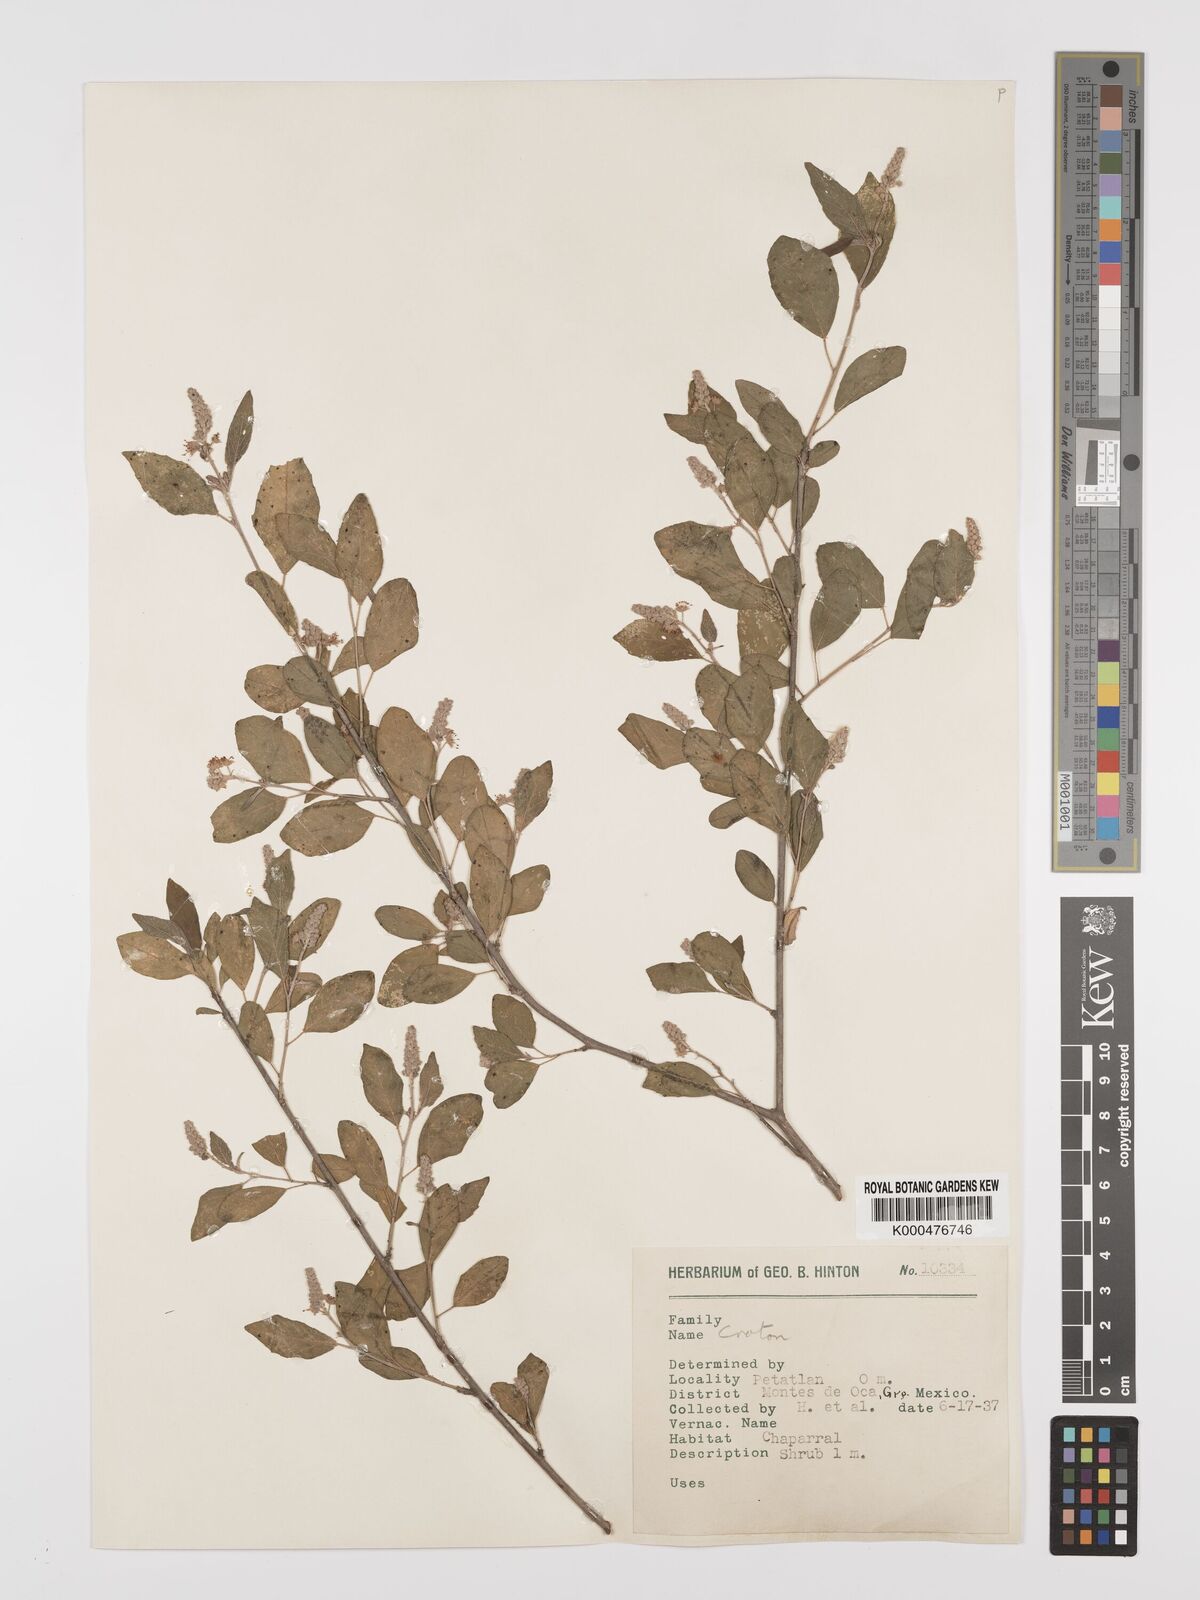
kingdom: Plantae
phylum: Tracheophyta
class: Magnoliopsida
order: Malpighiales
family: Euphorbiaceae
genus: Croton
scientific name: Croton
